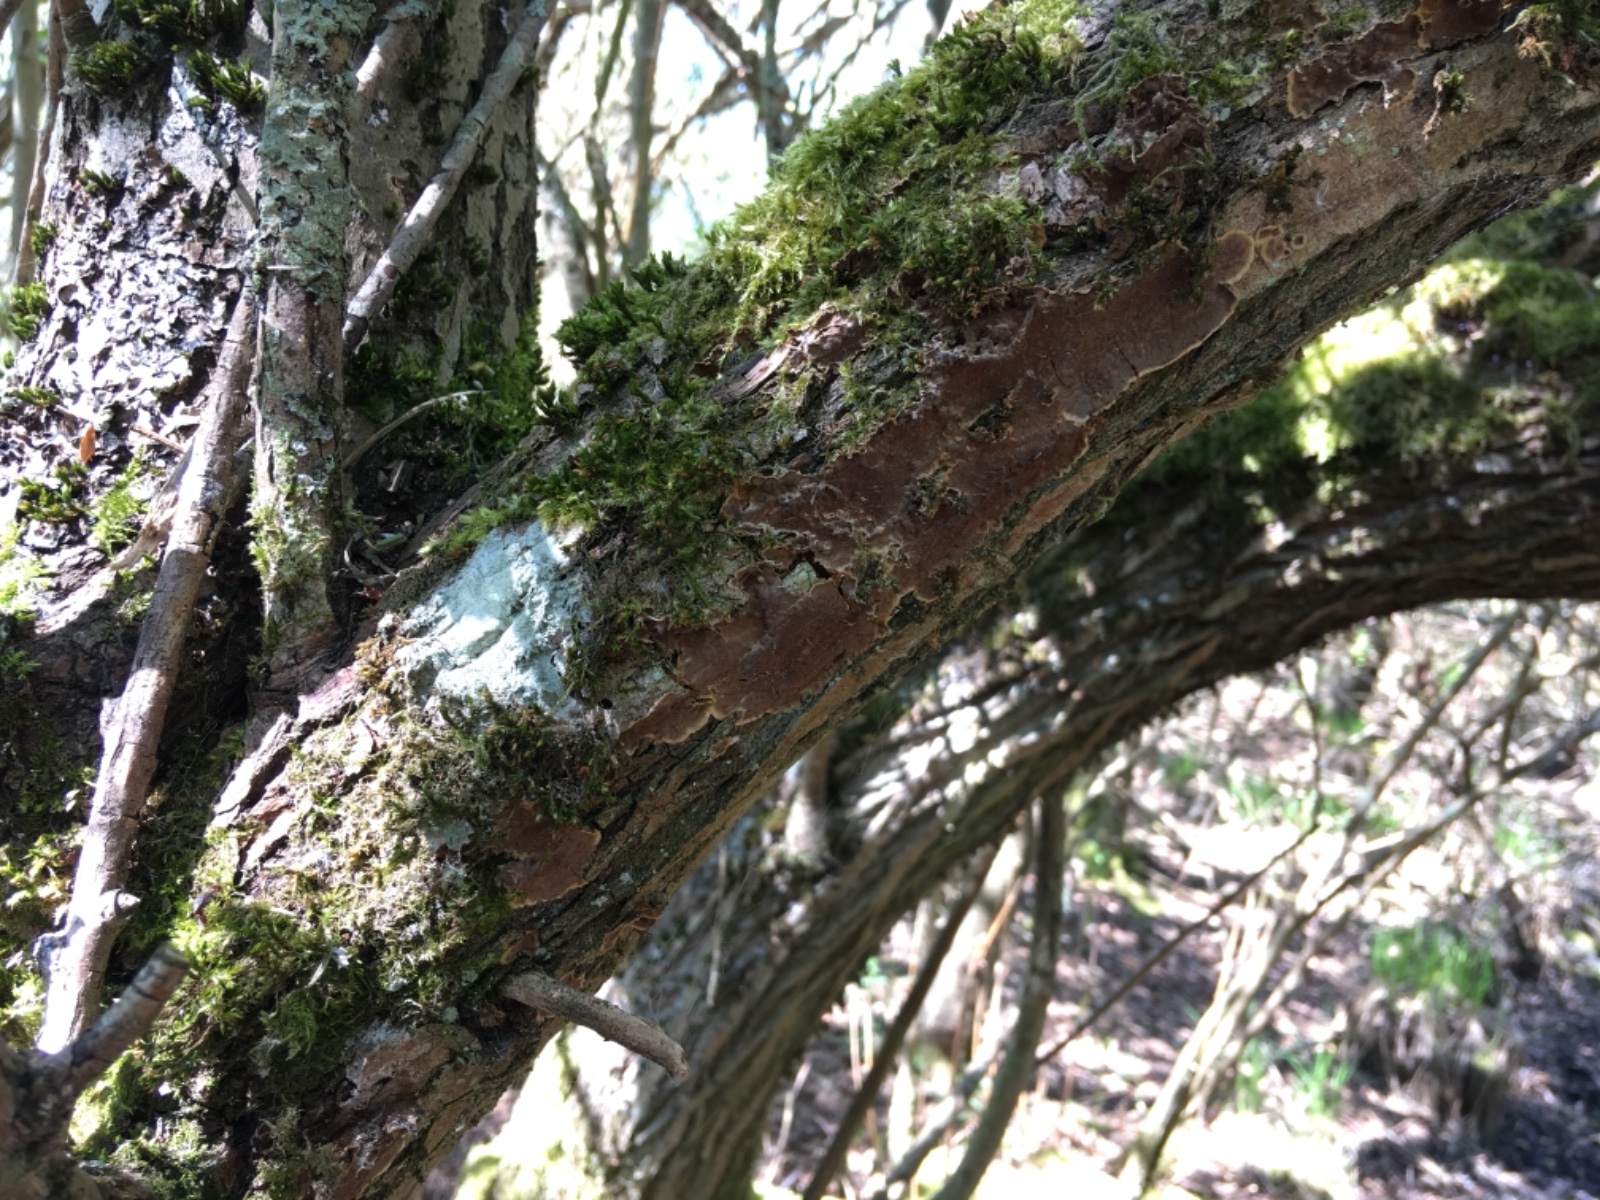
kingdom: Fungi
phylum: Basidiomycota
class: Agaricomycetes
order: Hymenochaetales
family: Hymenochaetaceae
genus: Hydnoporia
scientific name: Hydnoporia tabacina
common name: tobaksbrun ruslædersvamp
